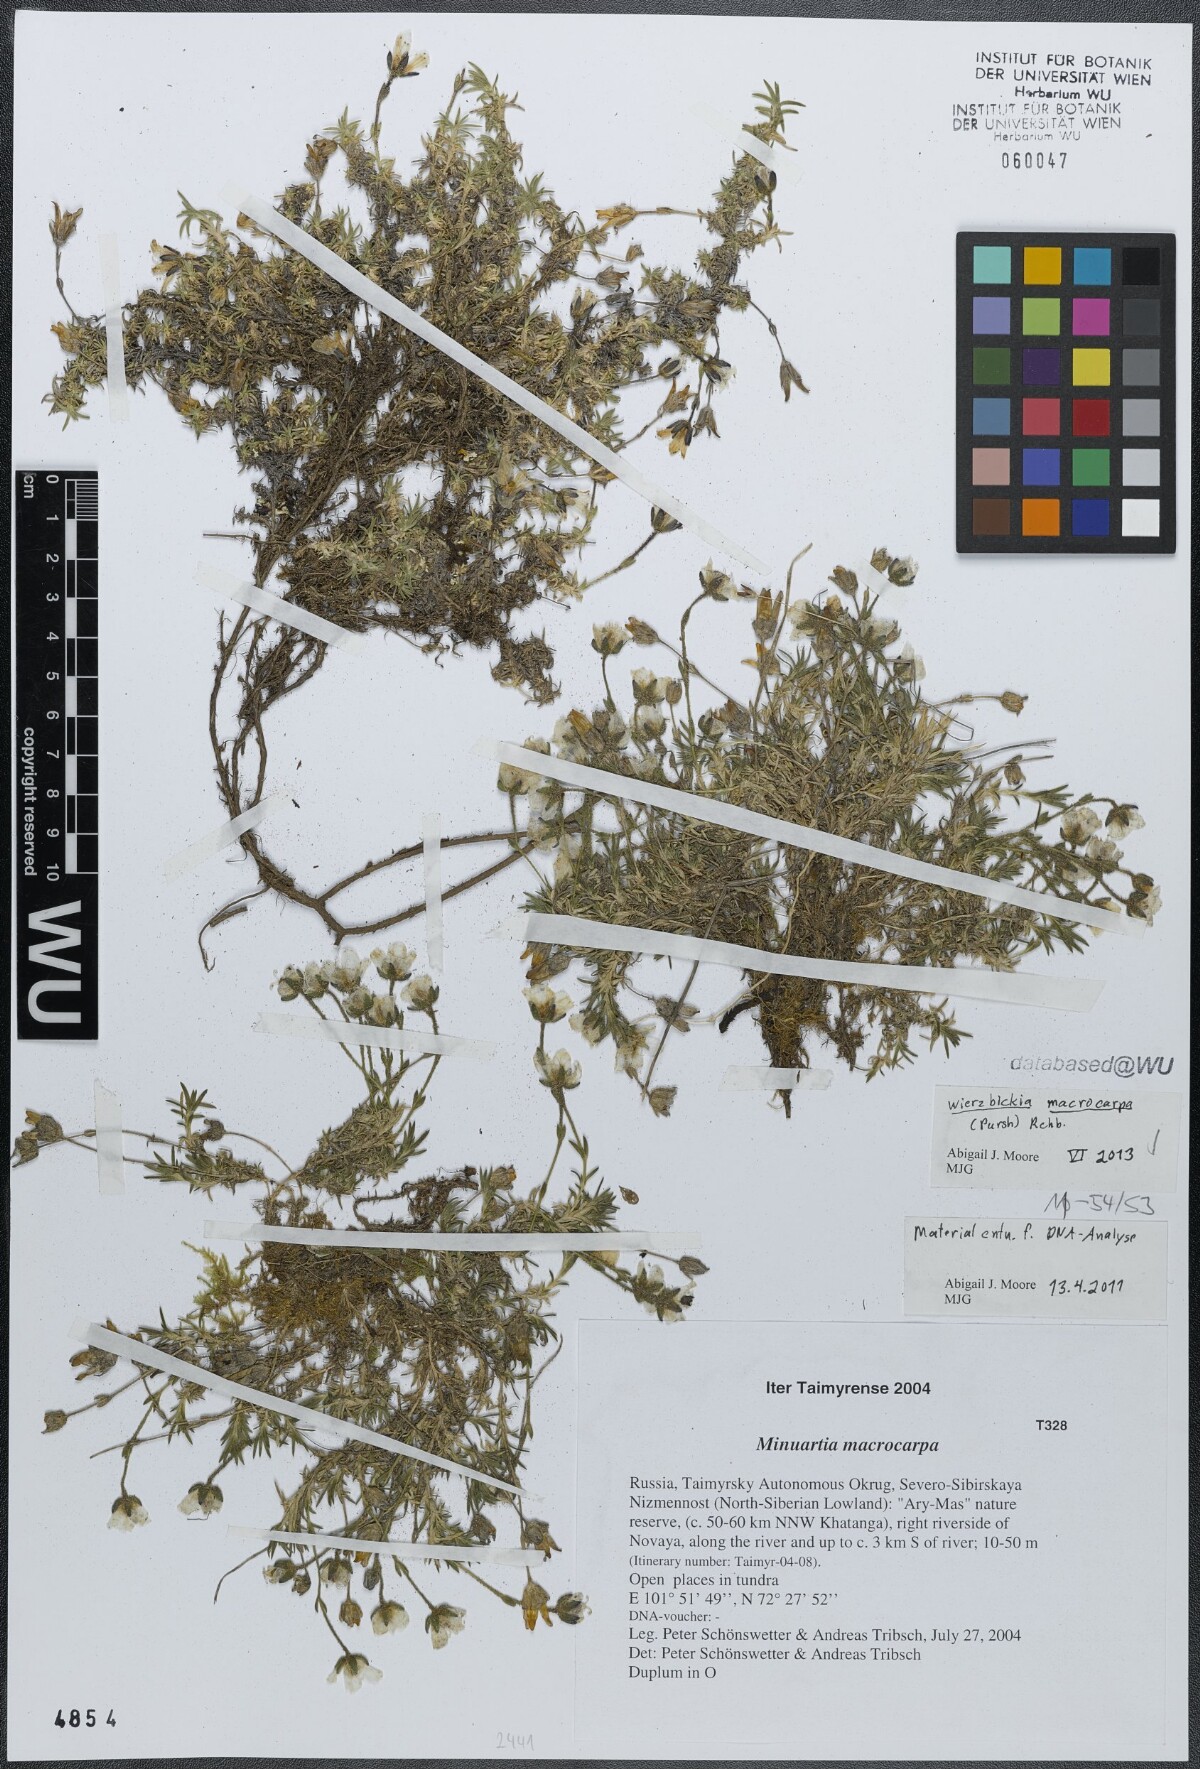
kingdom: Plantae
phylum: Tracheophyta
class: Magnoliopsida
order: Caryophyllales
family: Caryophyllaceae
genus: Pseudocherleria
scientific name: Pseudocherleria macrocarpa
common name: Large-fruit sandwort
